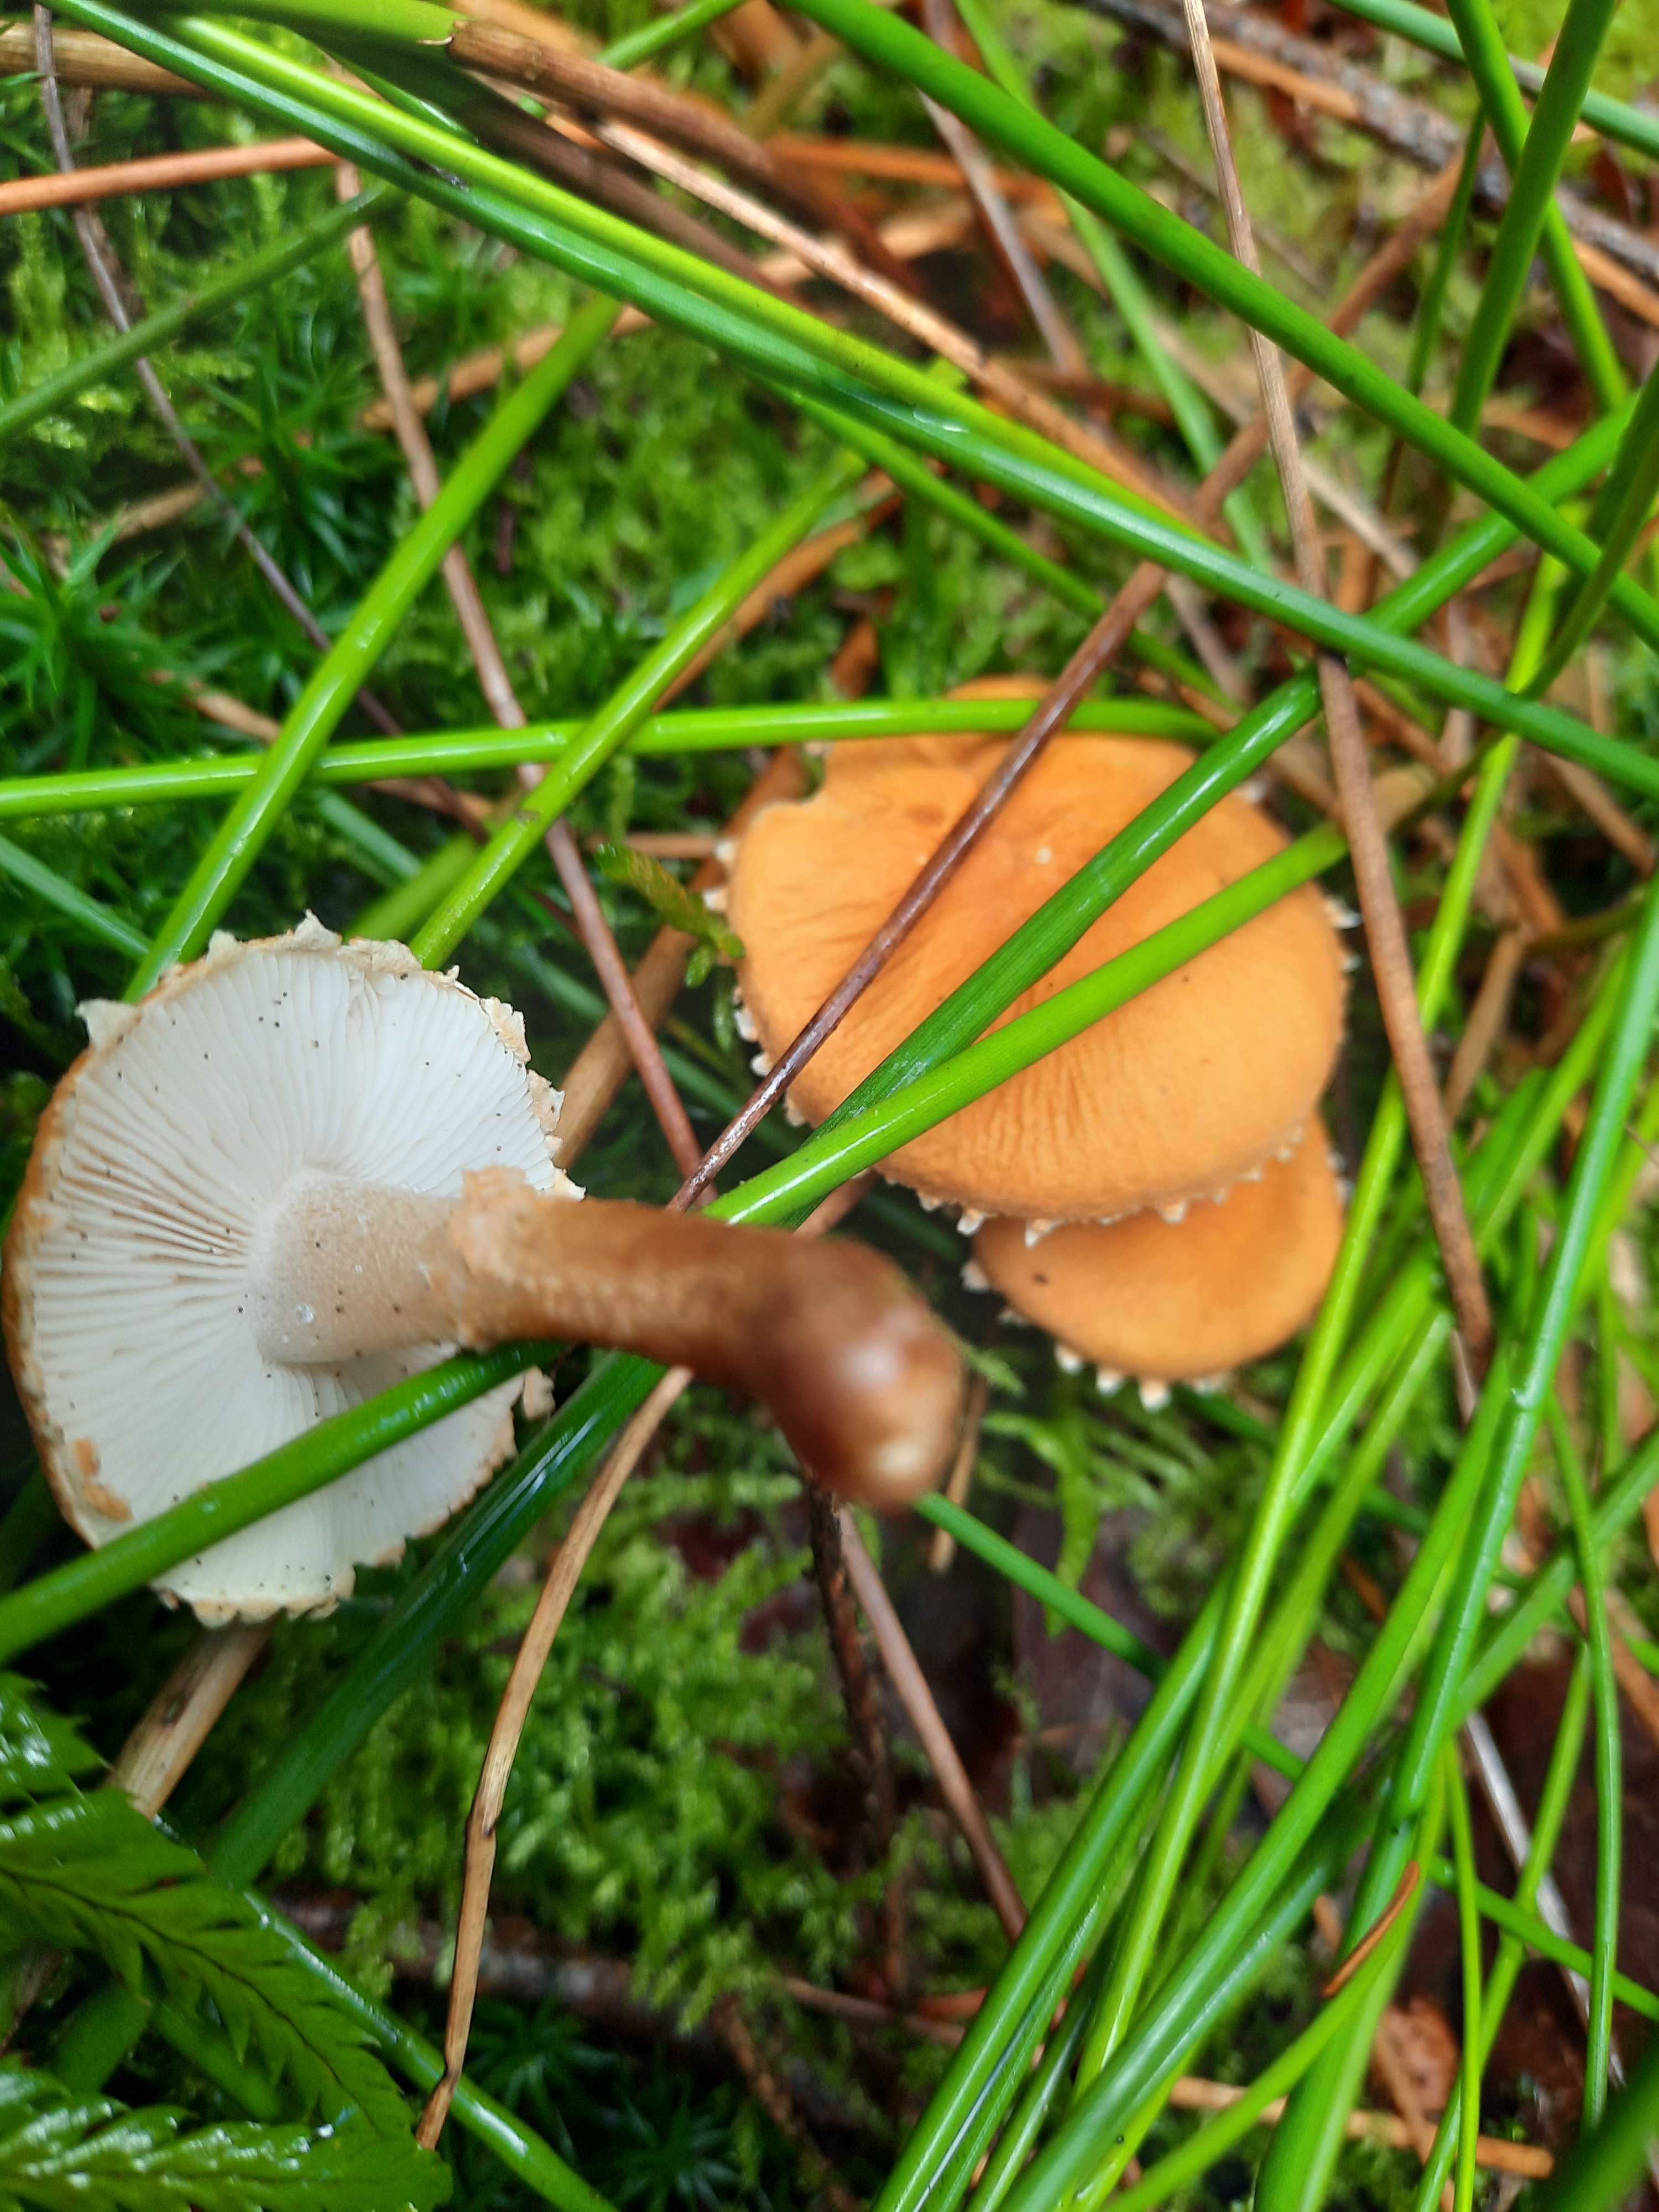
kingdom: Fungi
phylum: Basidiomycota
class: Agaricomycetes
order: Agaricales
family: Tricholomataceae
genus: Cystoderma
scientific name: Cystoderma amianthinum
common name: okkergul grynhat
